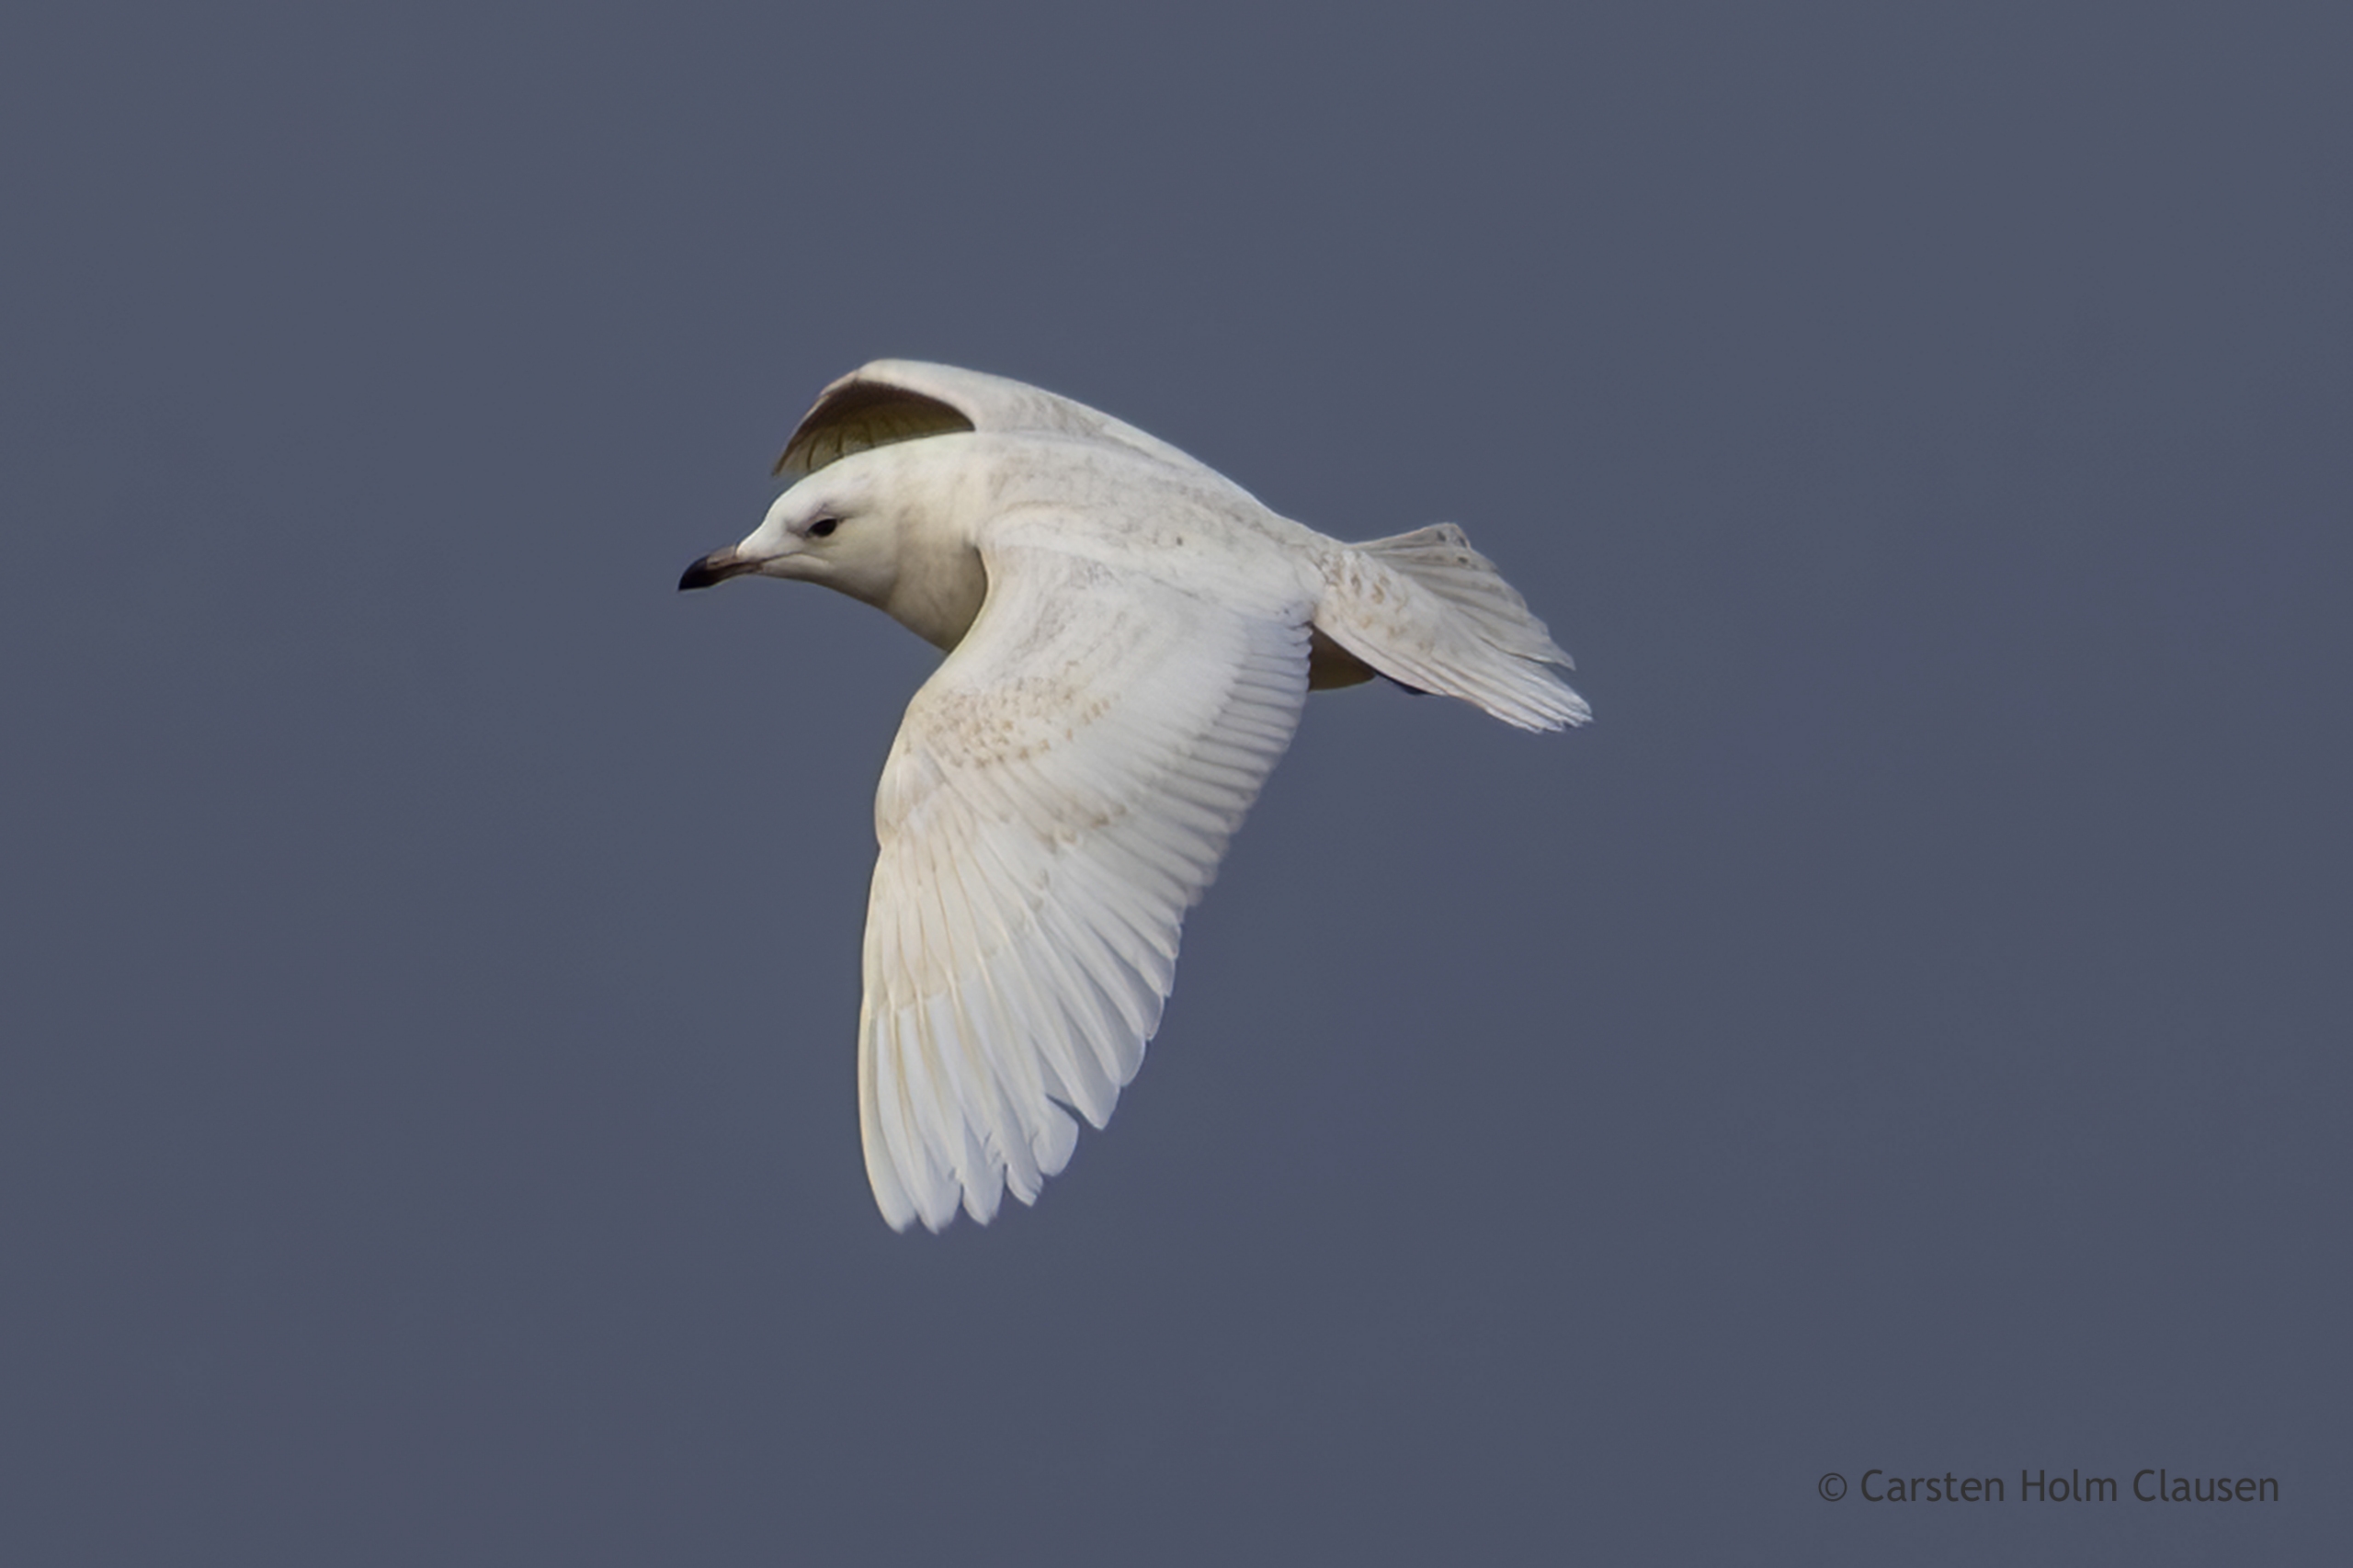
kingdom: Animalia
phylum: Chordata
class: Aves
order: Charadriiformes
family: Laridae
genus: Larus
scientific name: Larus glaucoides
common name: Hvidvinget måge
